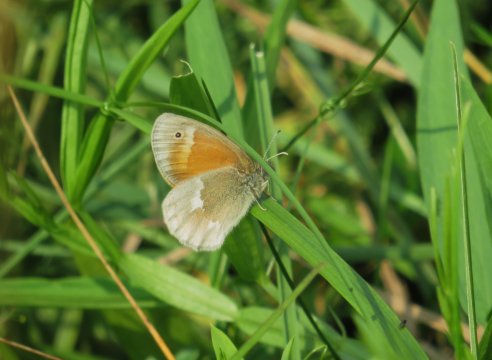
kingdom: Animalia
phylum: Arthropoda
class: Insecta
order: Lepidoptera
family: Nymphalidae
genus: Coenonympha
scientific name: Coenonympha tullia
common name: Large Heath
